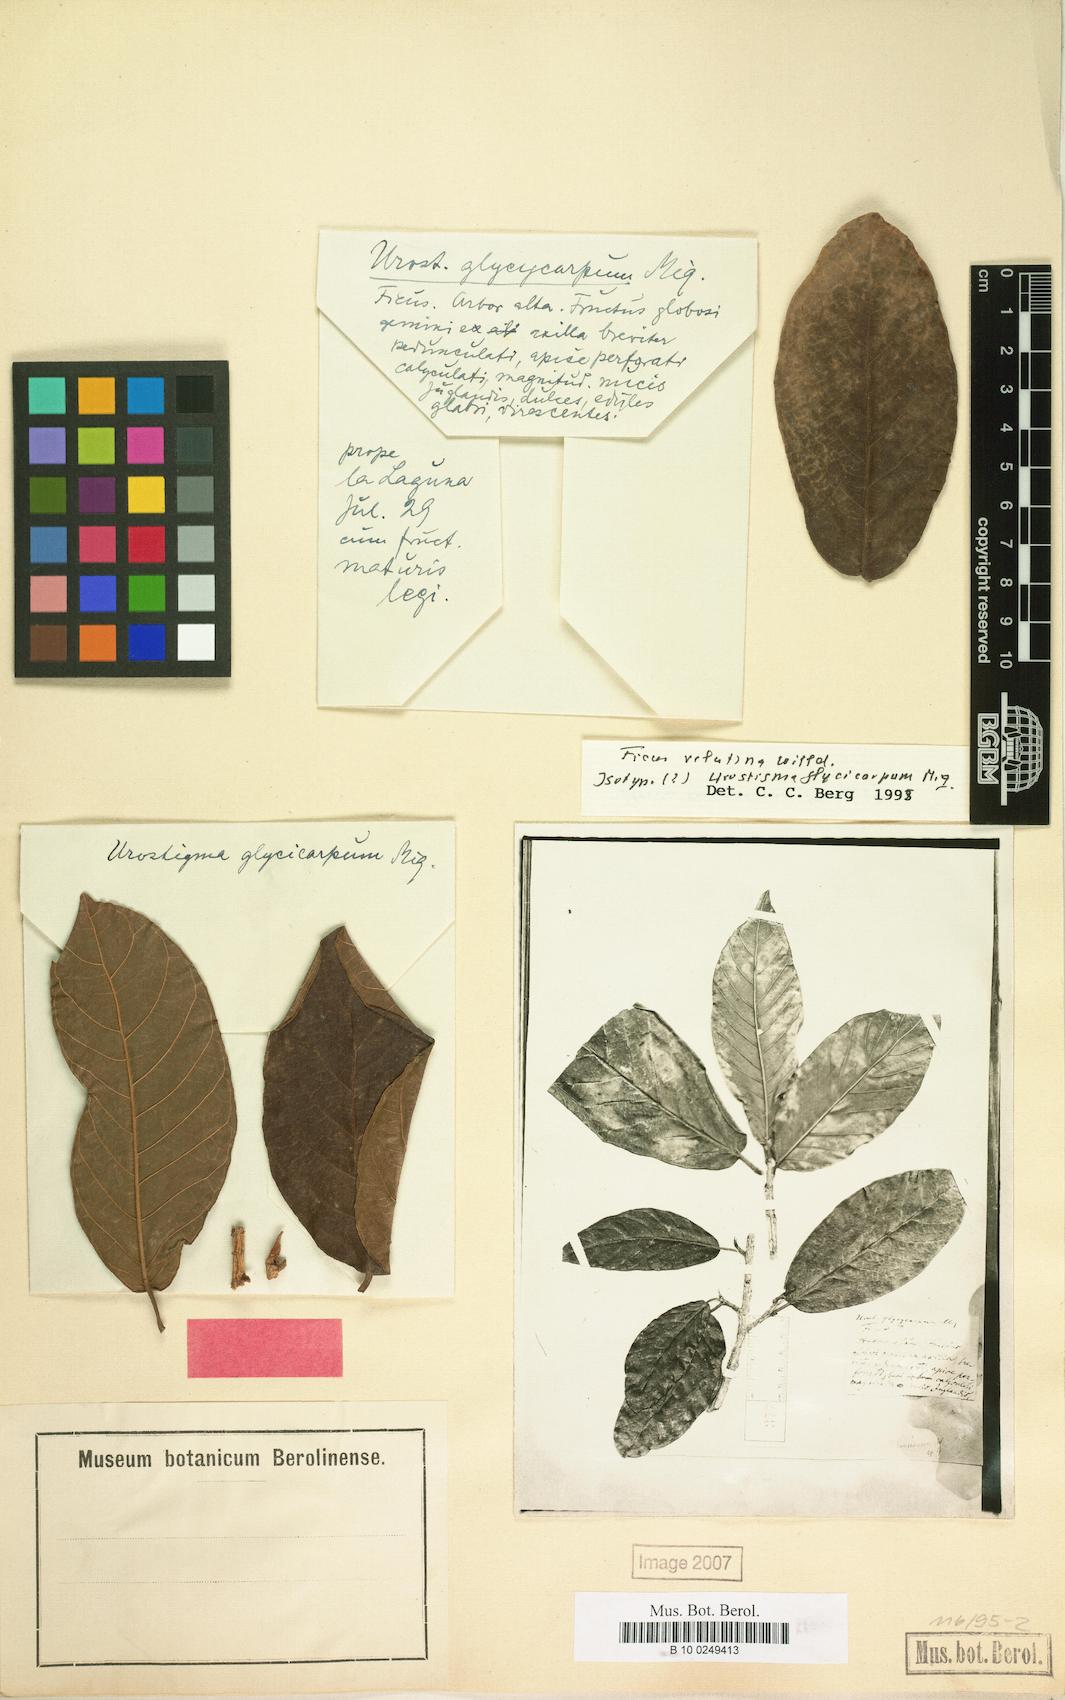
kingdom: Plantae
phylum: Tracheophyta
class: Magnoliopsida
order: Rosales
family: Moraceae
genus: Ficus
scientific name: Ficus velutina
